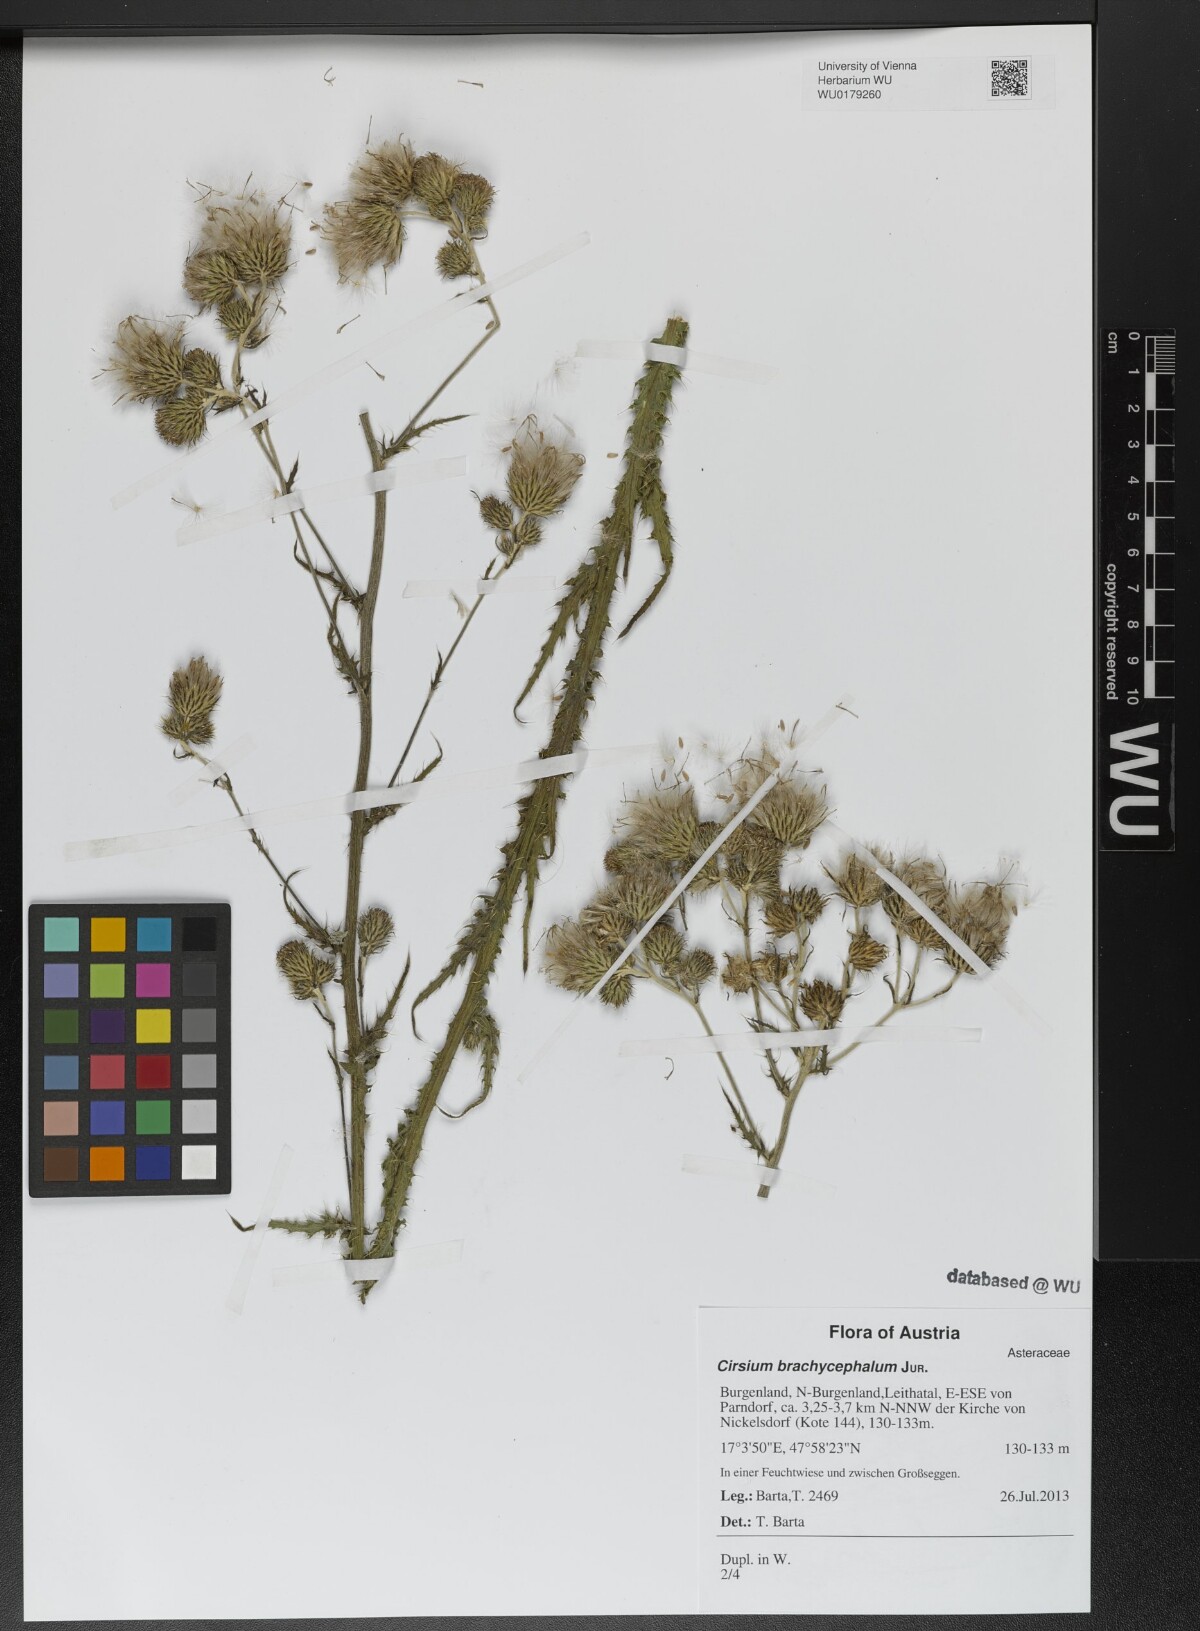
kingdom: Plantae
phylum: Tracheophyta
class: Magnoliopsida
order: Asterales
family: Asteraceae
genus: Cirsium
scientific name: Cirsium brachycephalum
